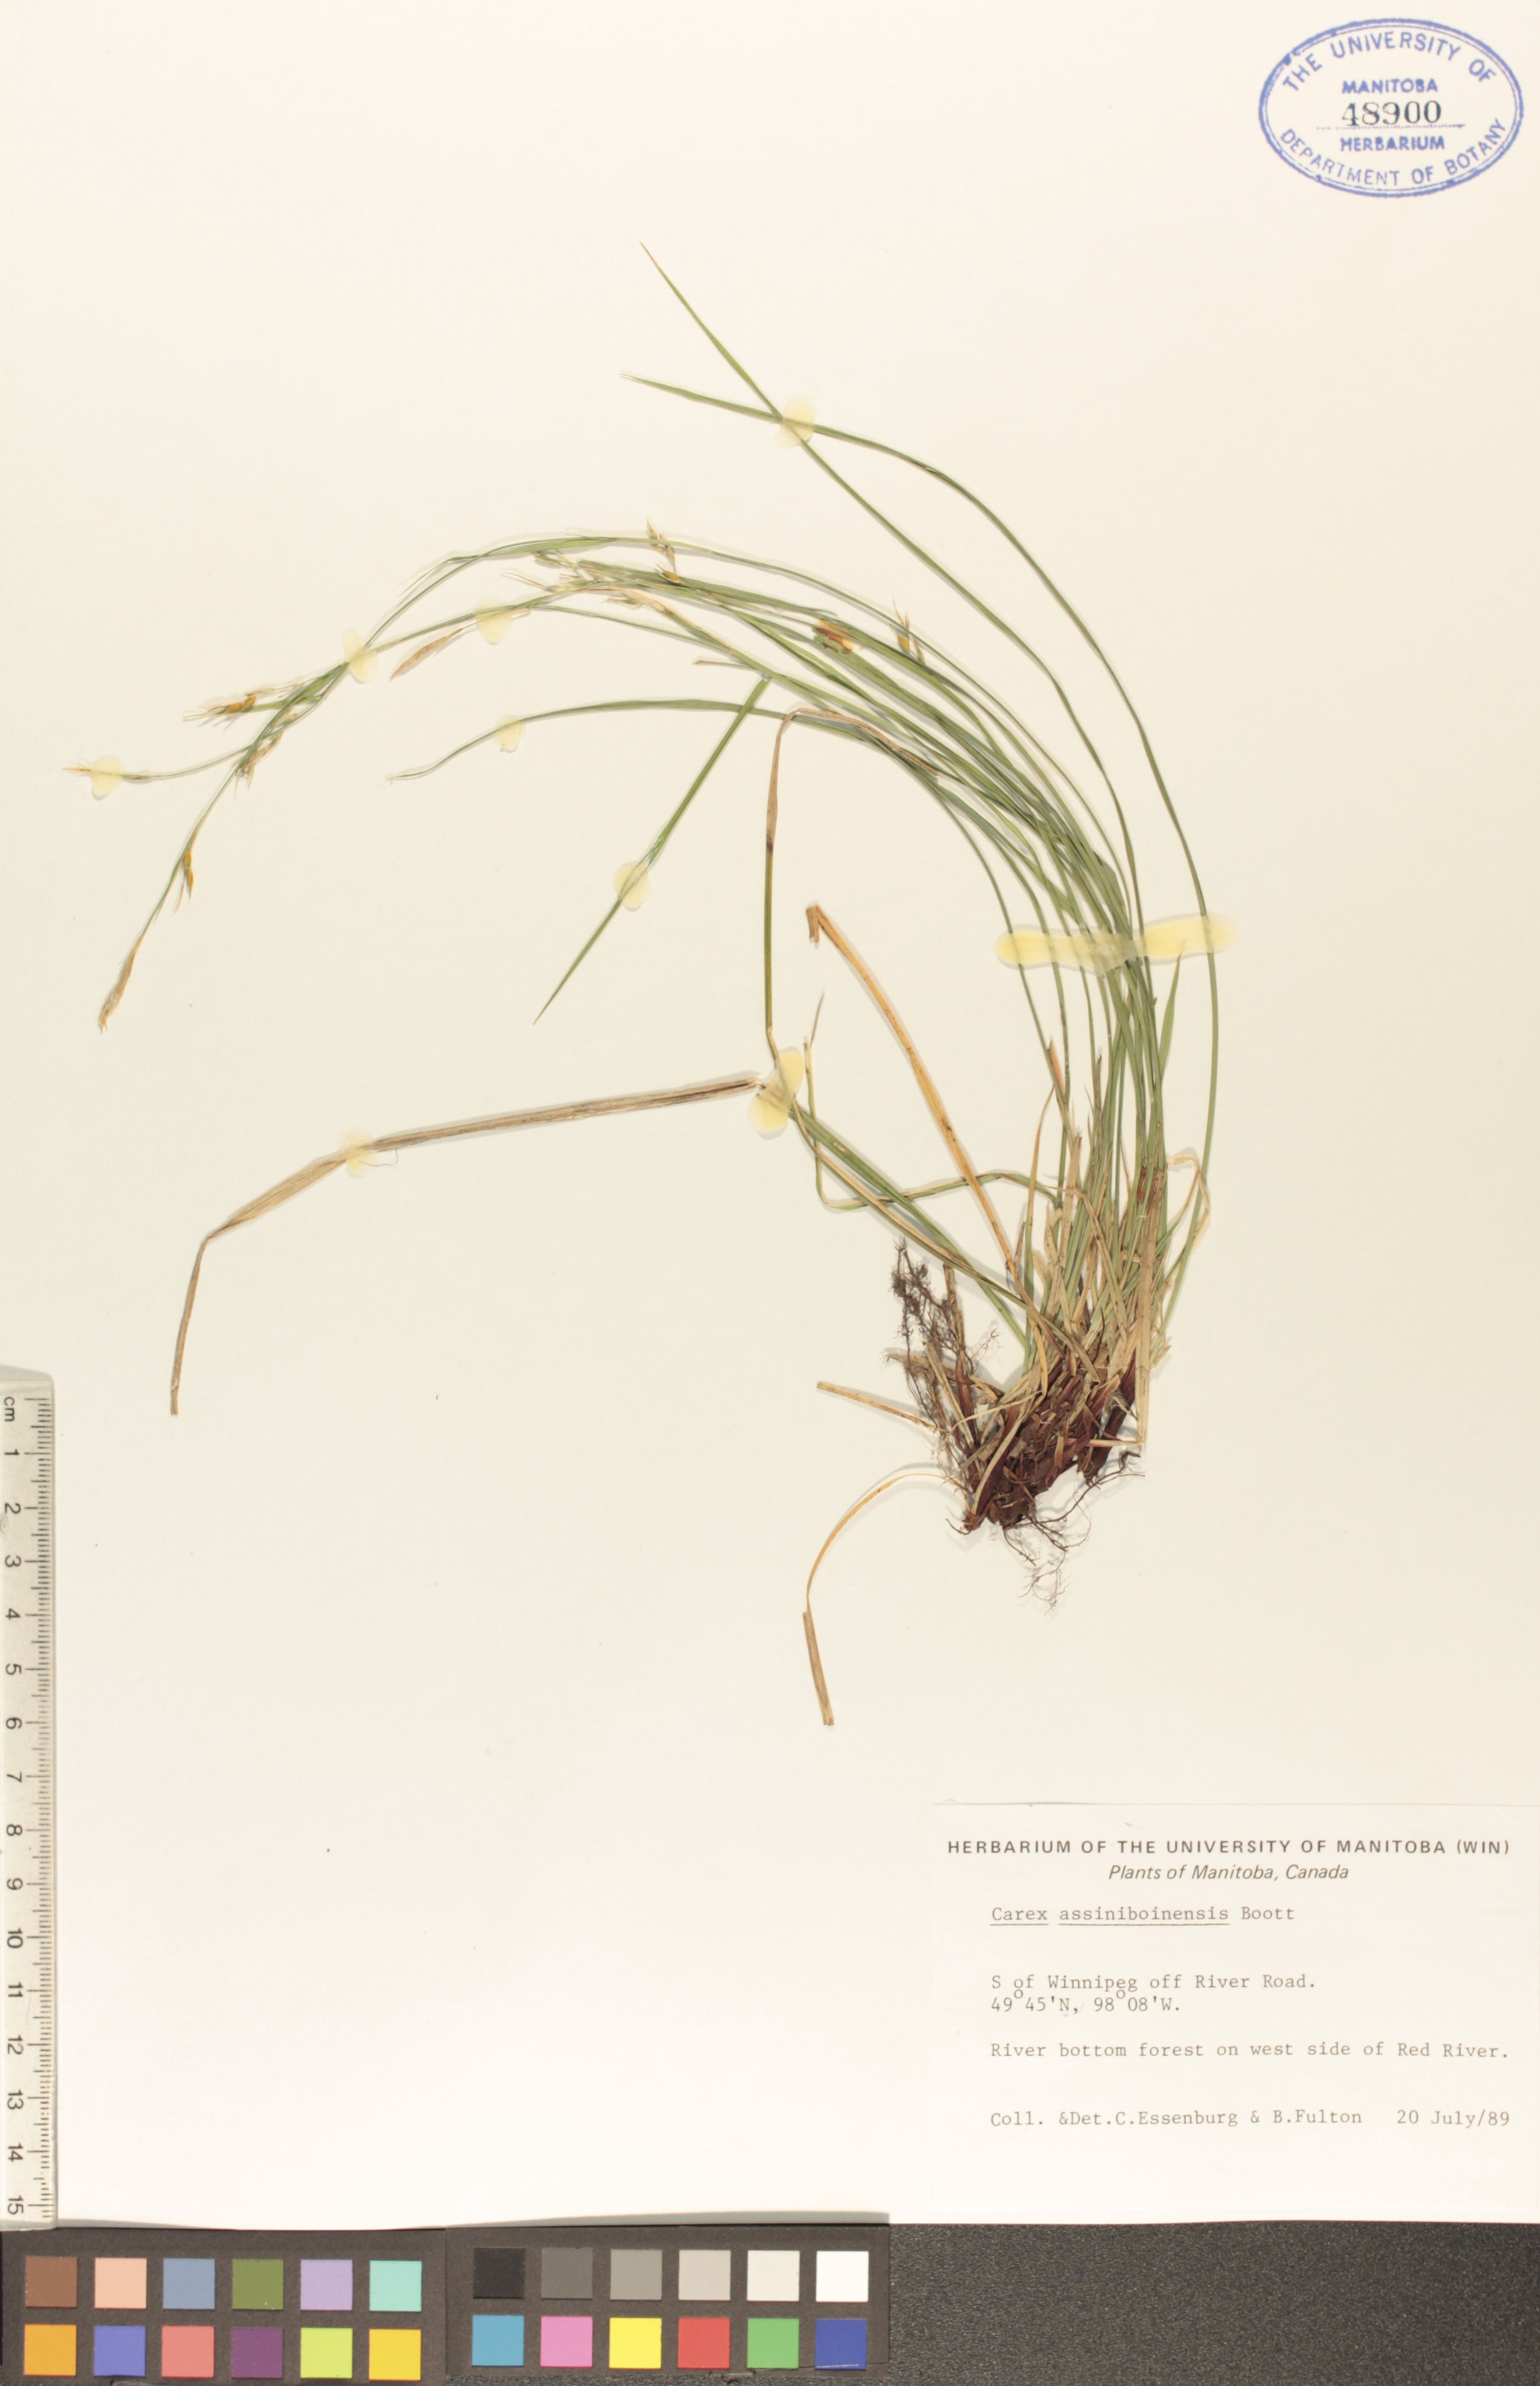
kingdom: Plantae
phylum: Tracheophyta
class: Liliopsida
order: Poales
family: Cyperaceae
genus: Carex
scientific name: Carex assiniboinensis
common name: Assiniboia sedge
